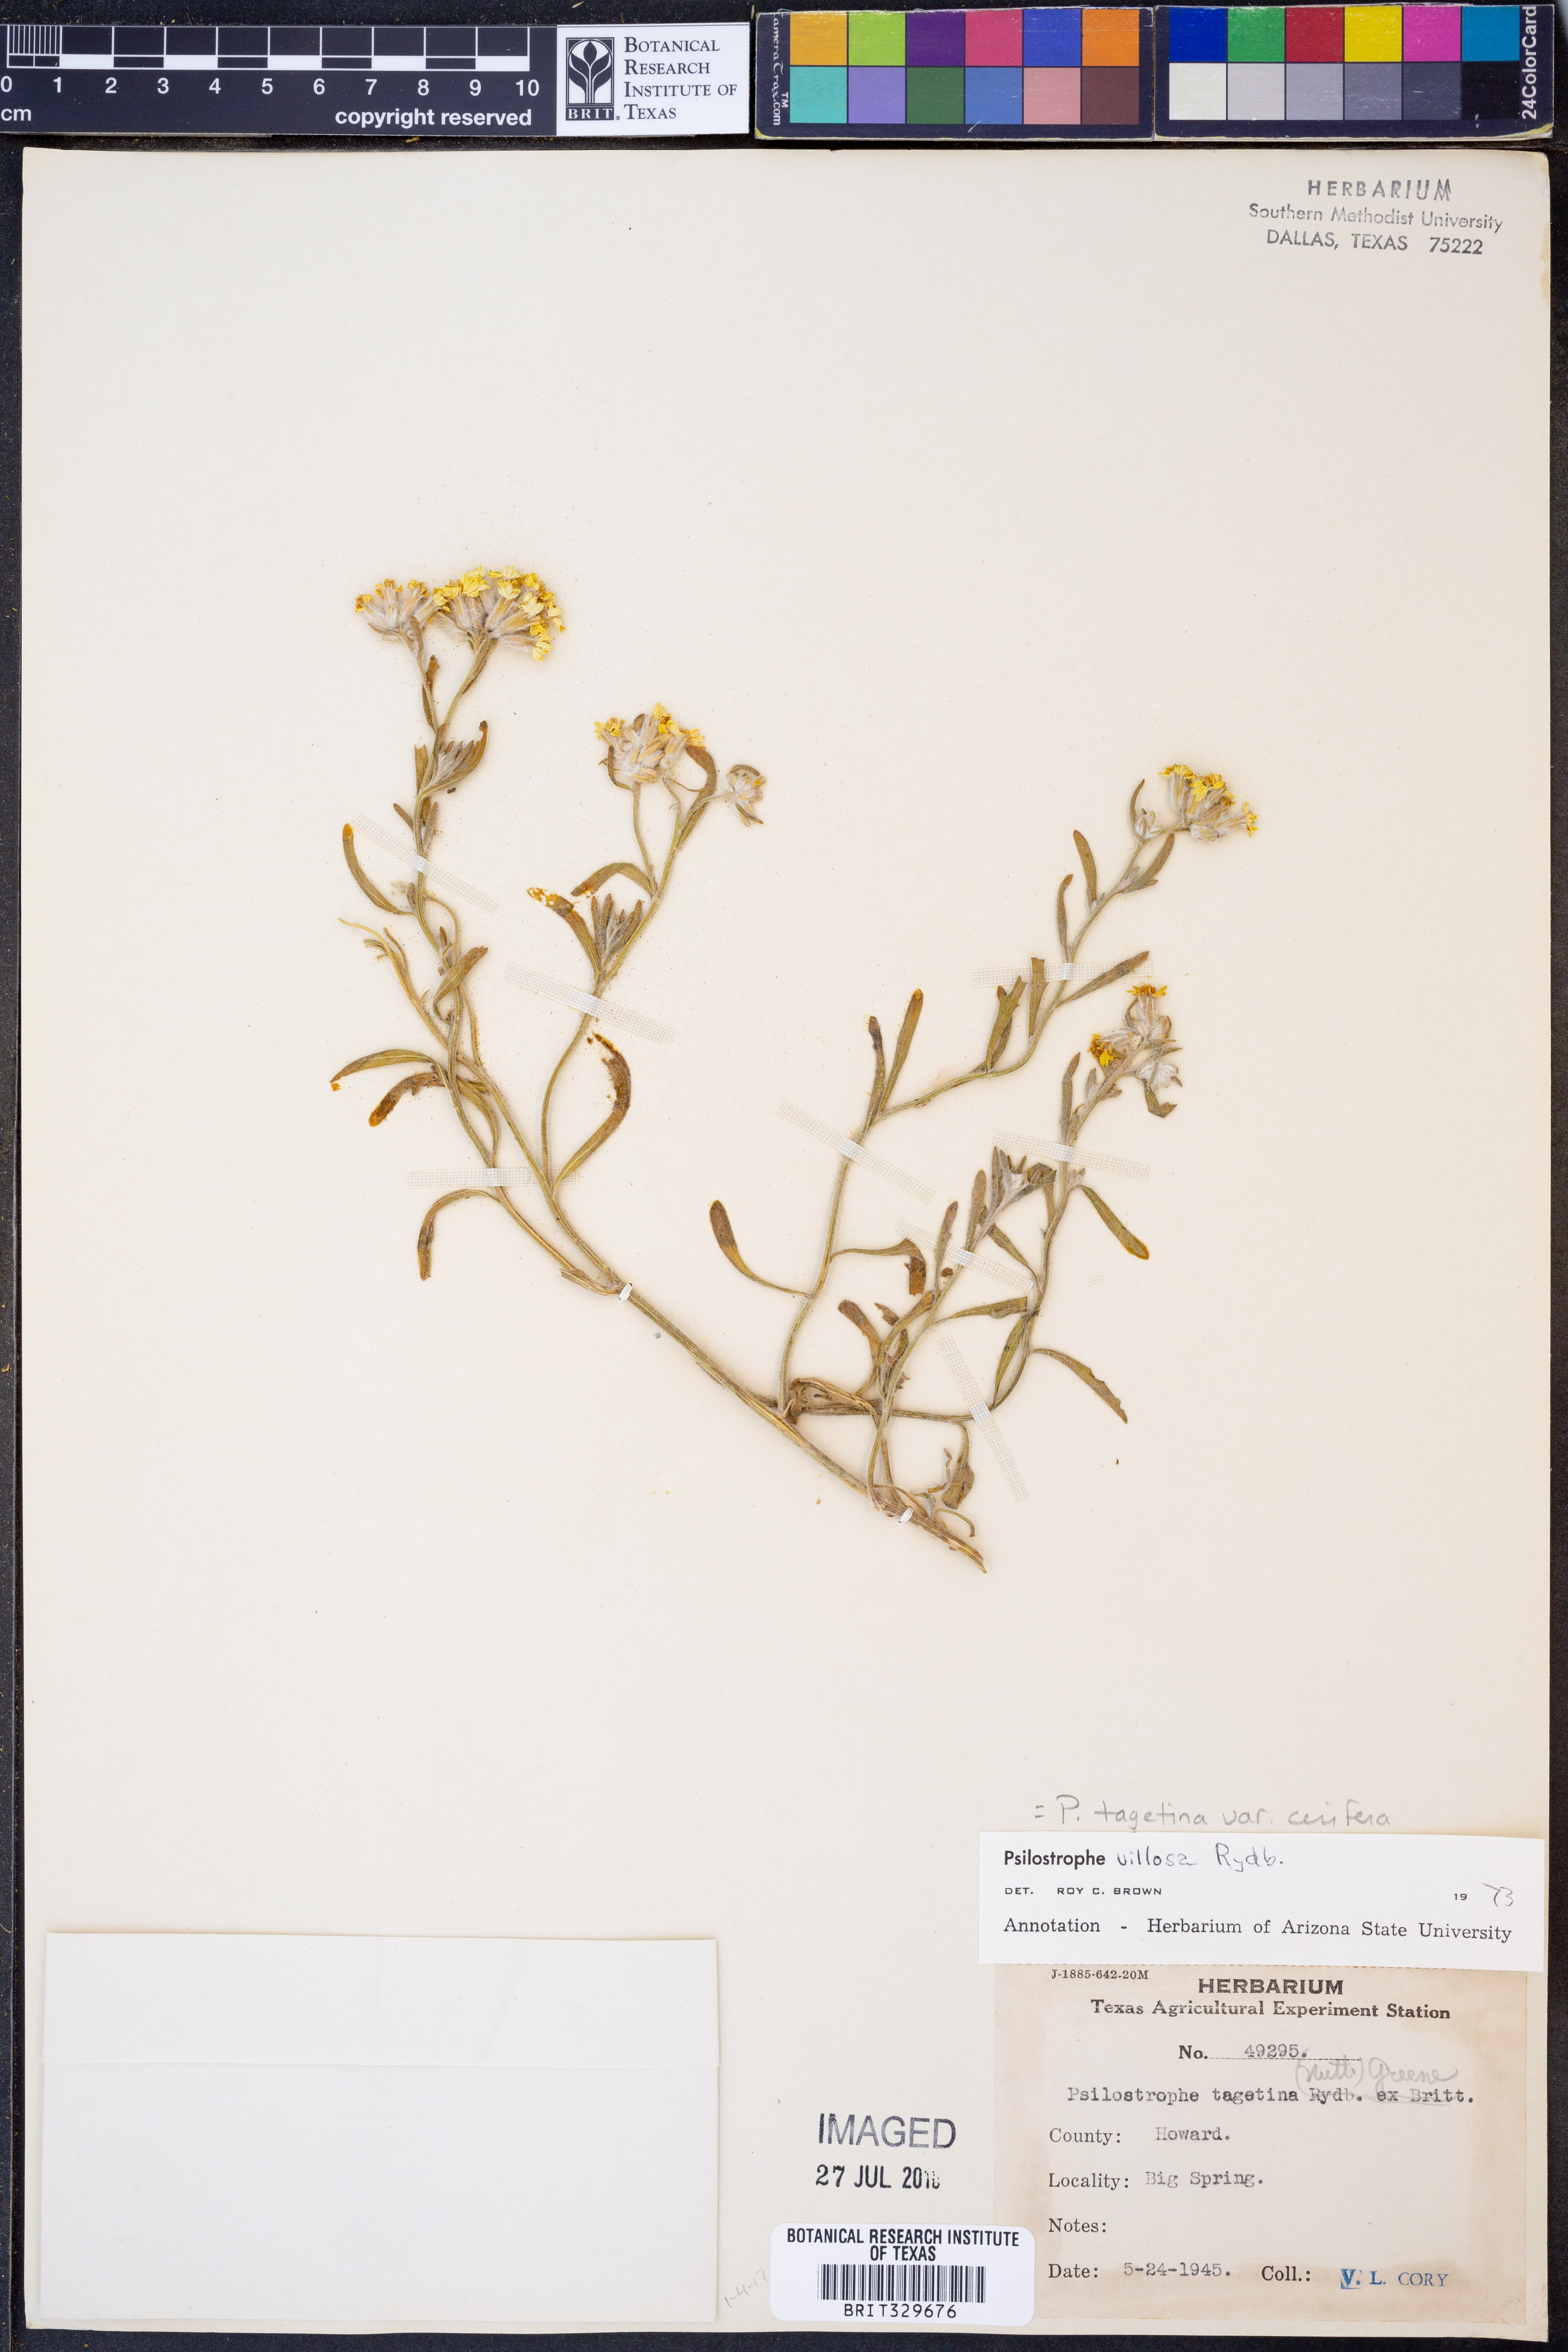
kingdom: Plantae
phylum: Tracheophyta
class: Magnoliopsida
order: Asterales
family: Asteraceae
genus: Psilostrophe
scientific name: Psilostrophe villosa
